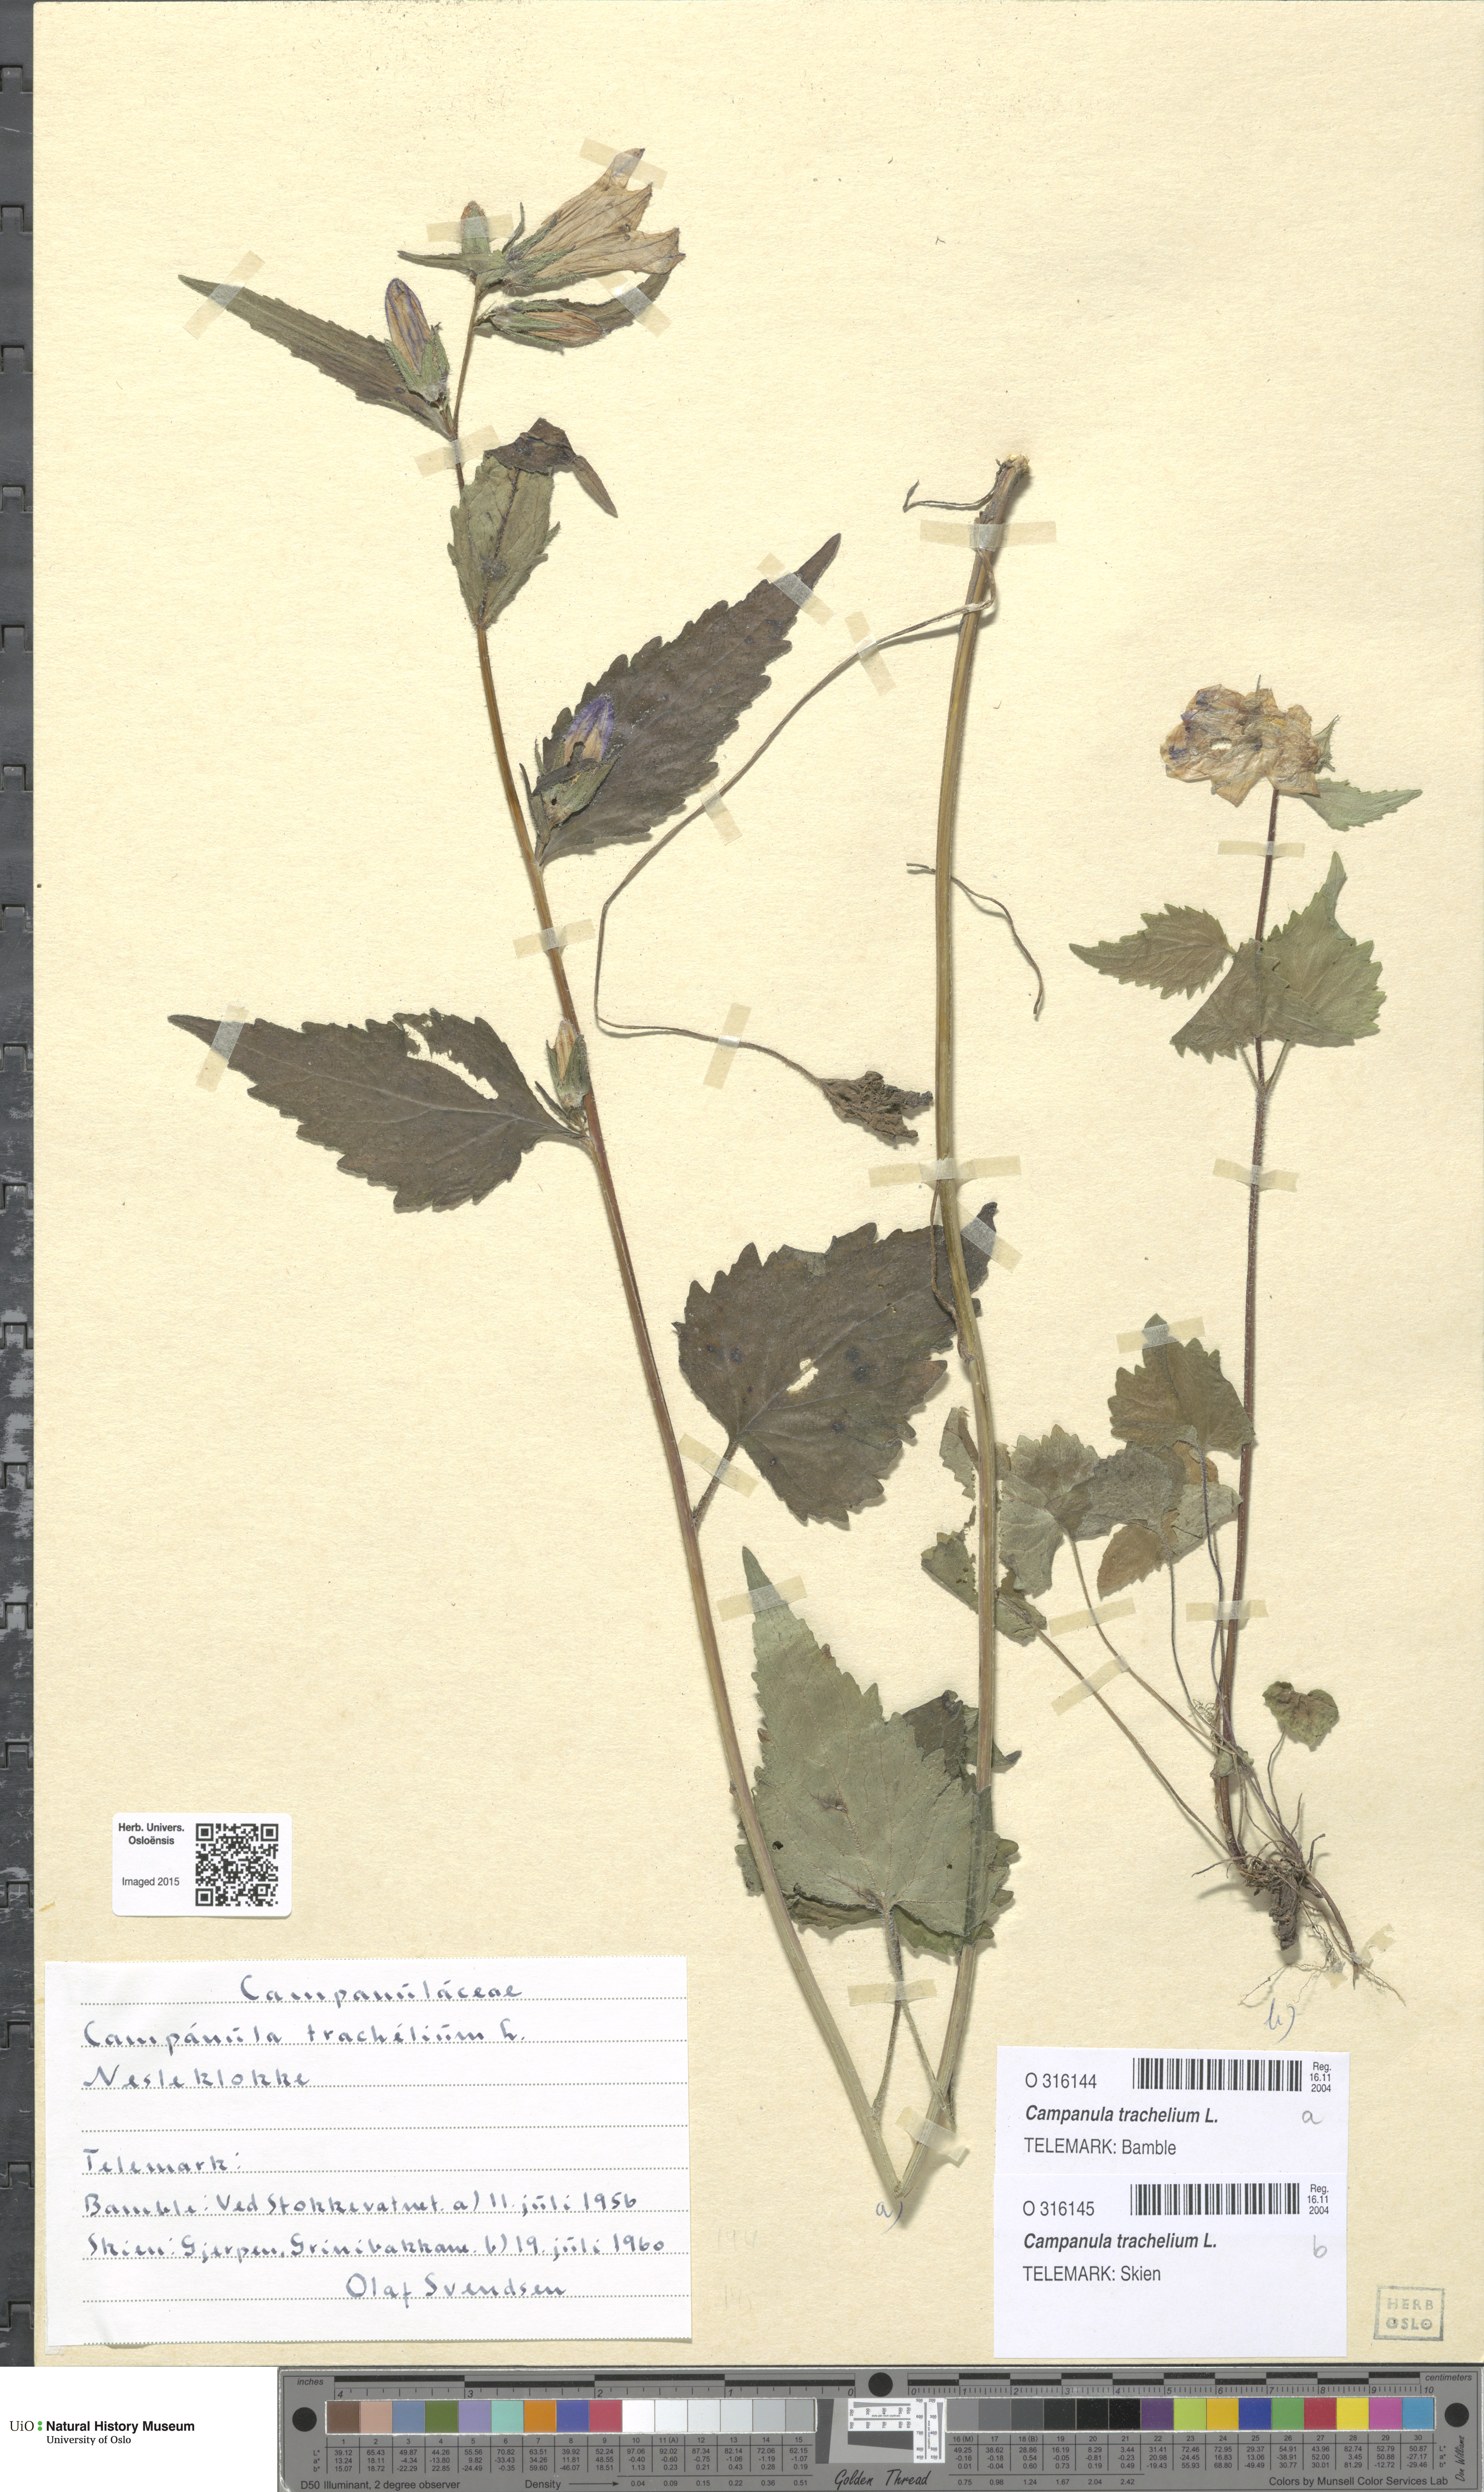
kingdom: Plantae
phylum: Tracheophyta
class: Magnoliopsida
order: Asterales
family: Campanulaceae
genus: Campanula
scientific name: Campanula trachelium
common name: Nettle-leaved bellflower
